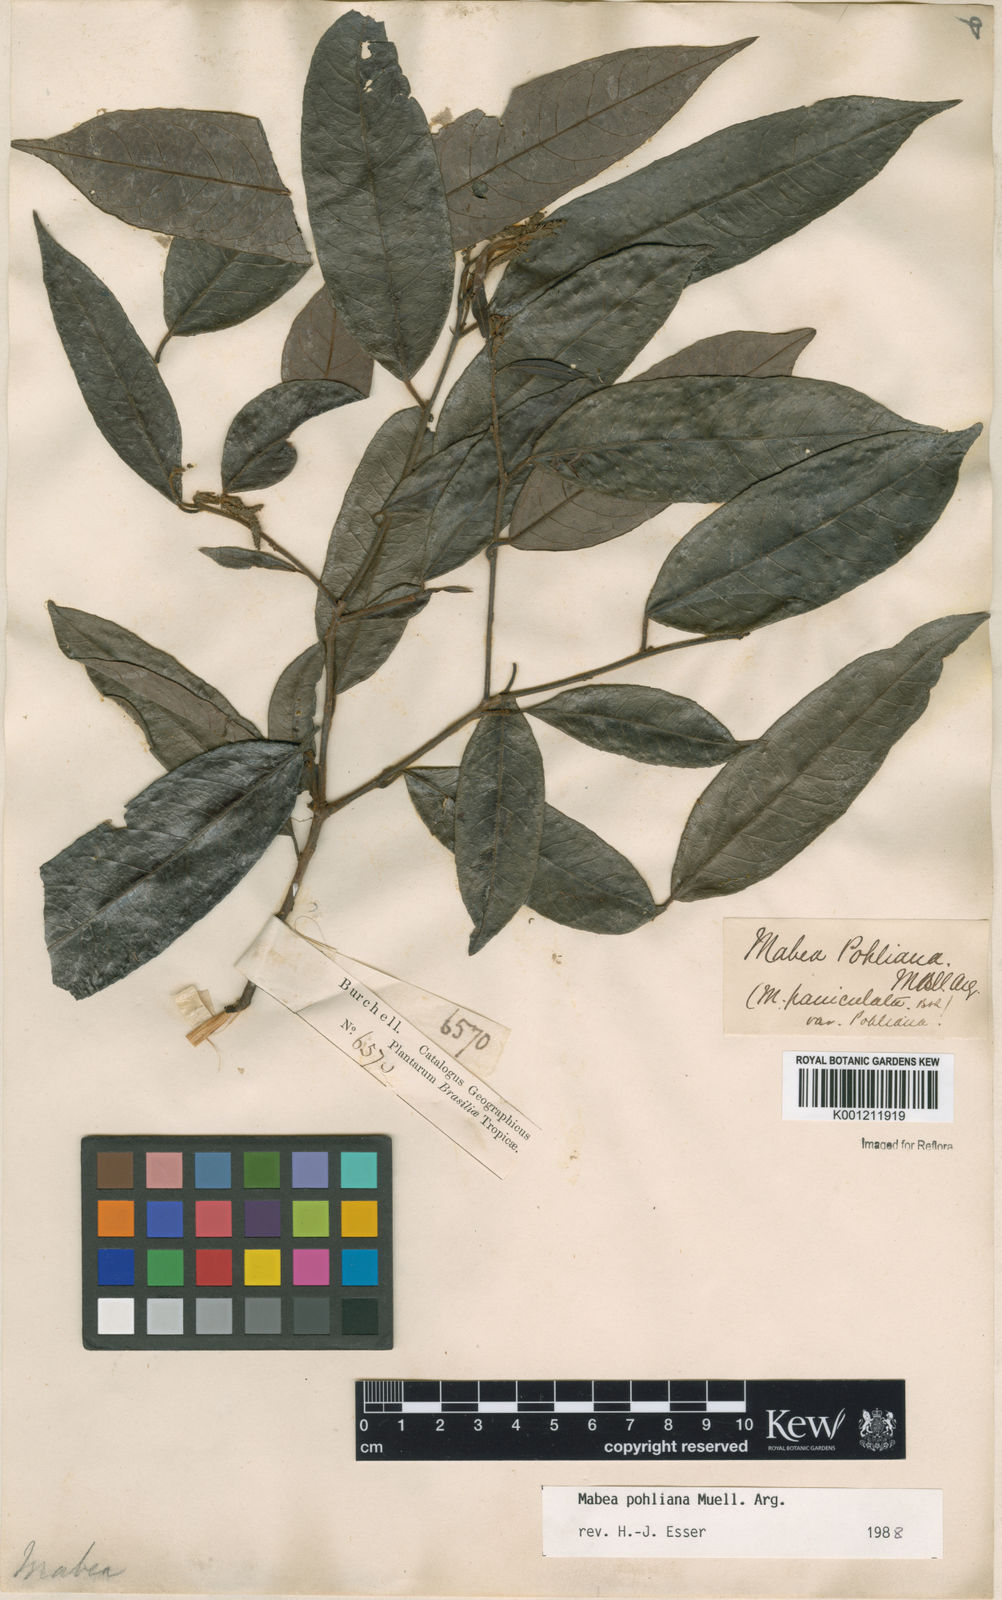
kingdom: Plantae
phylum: Tracheophyta
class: Magnoliopsida
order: Malpighiales
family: Euphorbiaceae
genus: Mabea
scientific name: Mabea
